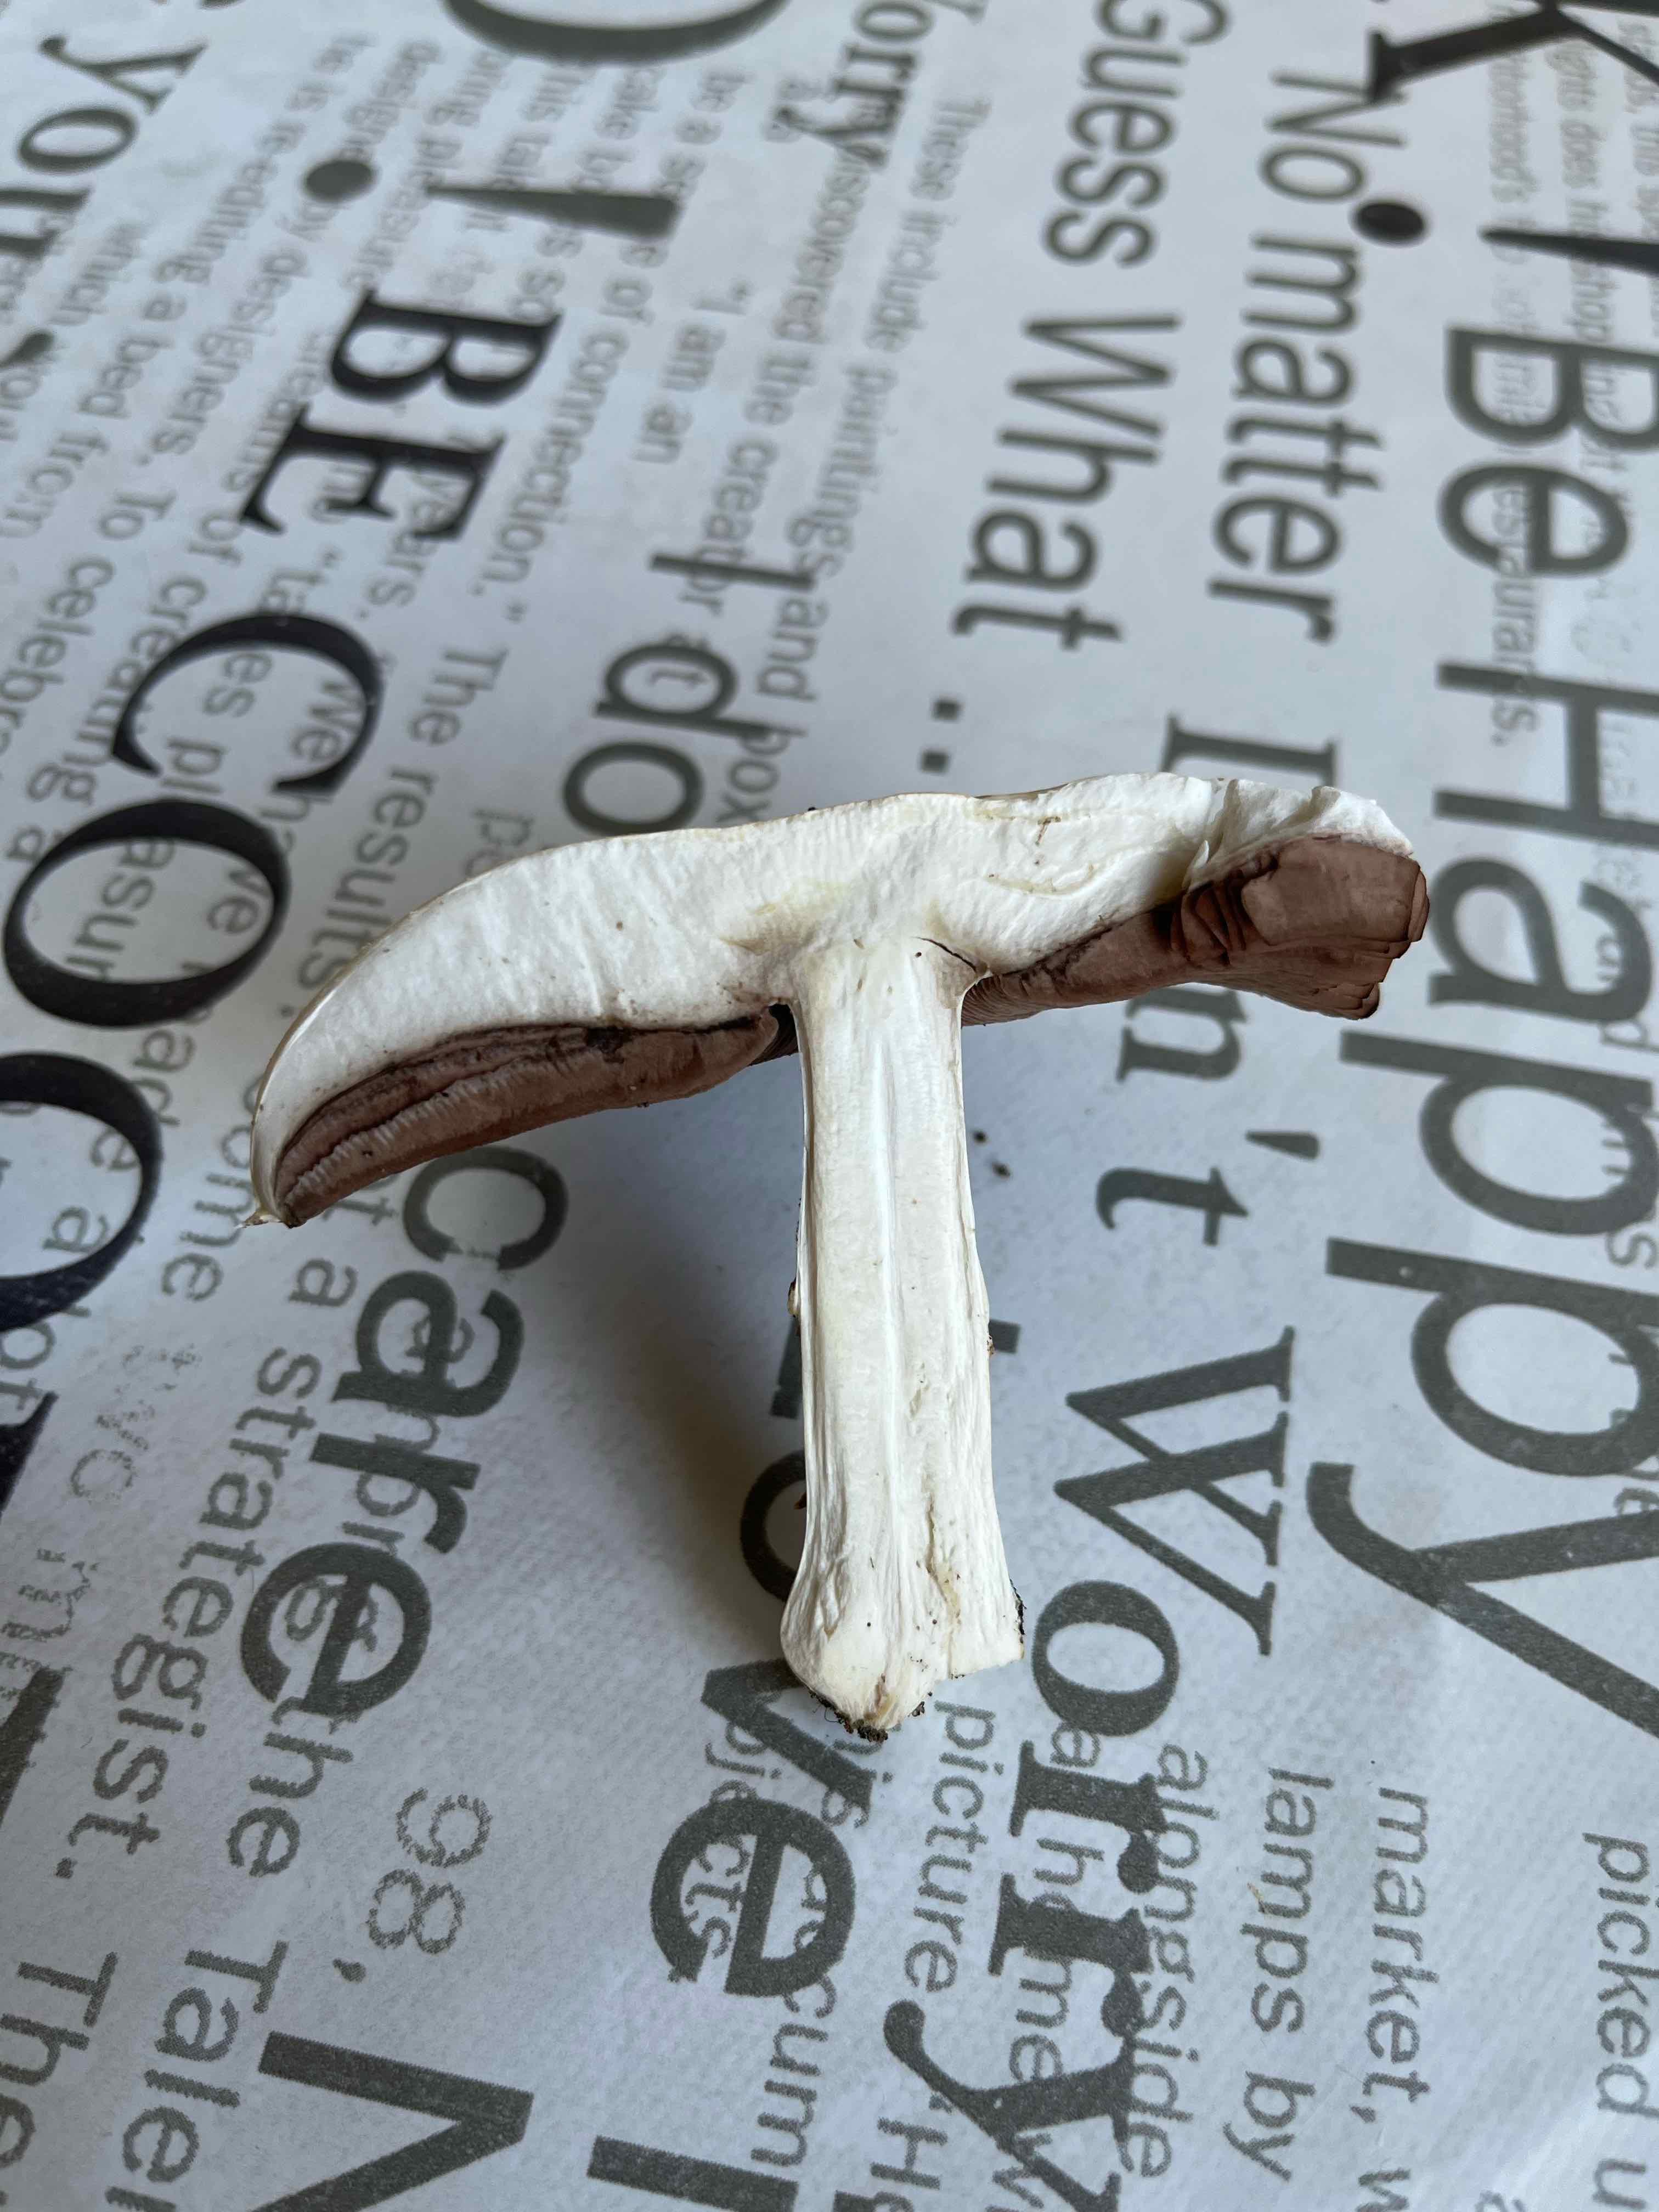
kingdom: Fungi
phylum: Basidiomycota
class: Agaricomycetes
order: Agaricales
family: Agaricaceae
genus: Agaricus
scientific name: Agaricus
